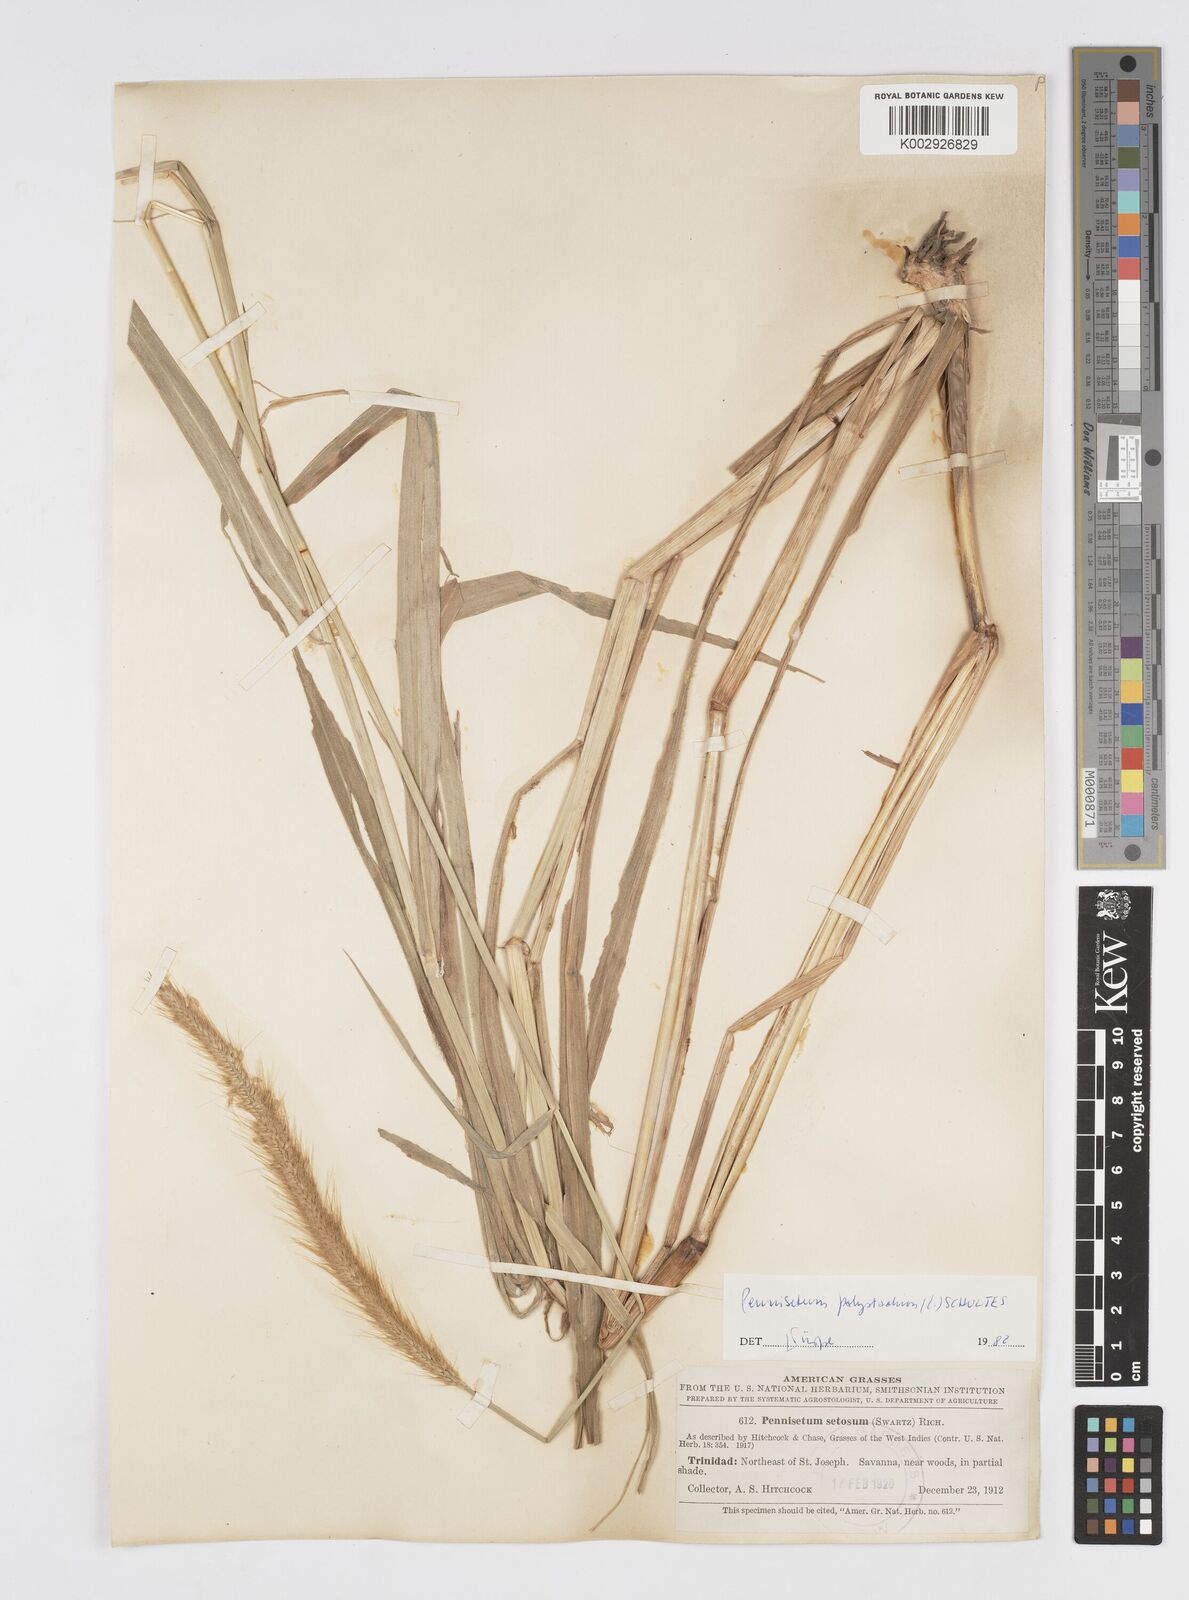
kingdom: Plantae
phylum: Tracheophyta
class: Liliopsida
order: Poales
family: Poaceae
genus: Cenchrus
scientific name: Cenchrus setosus
